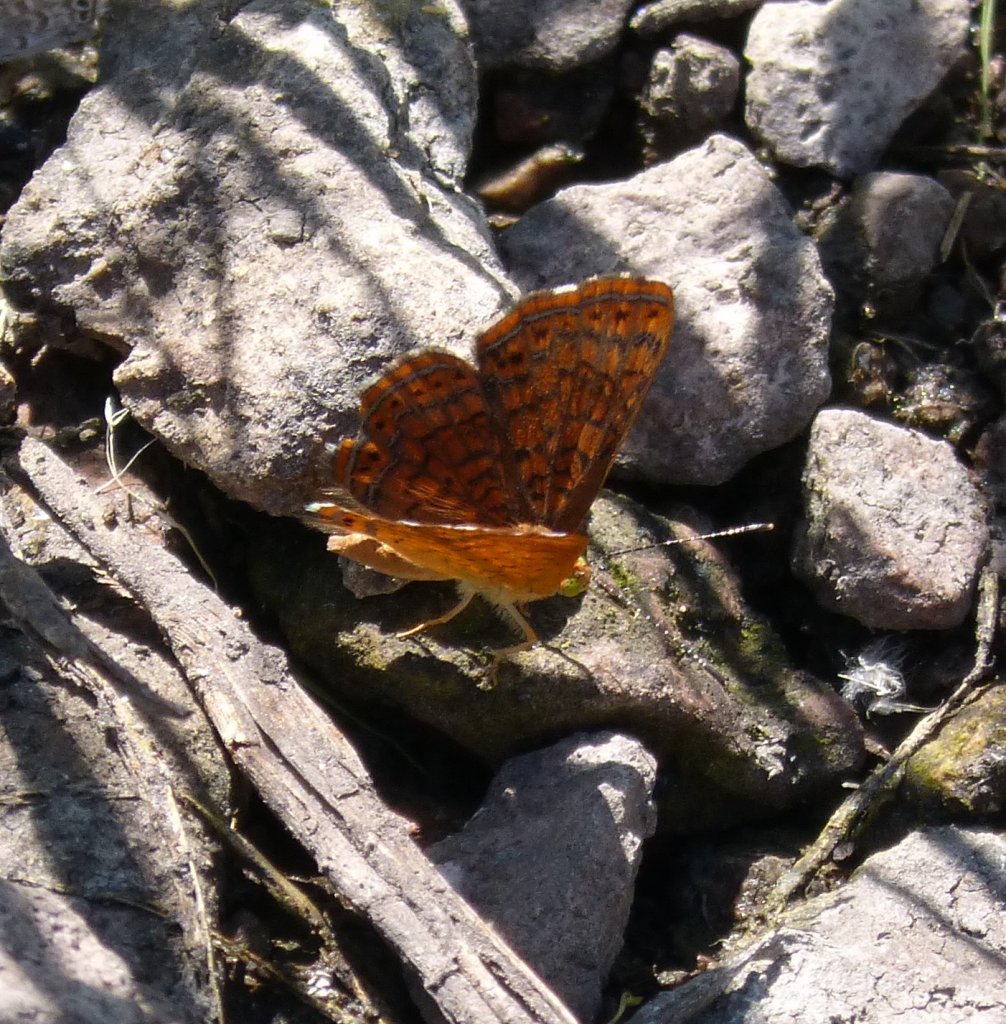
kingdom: Animalia
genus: Calephelis
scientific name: Calephelis arizonensis
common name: Arizona Metalmark
